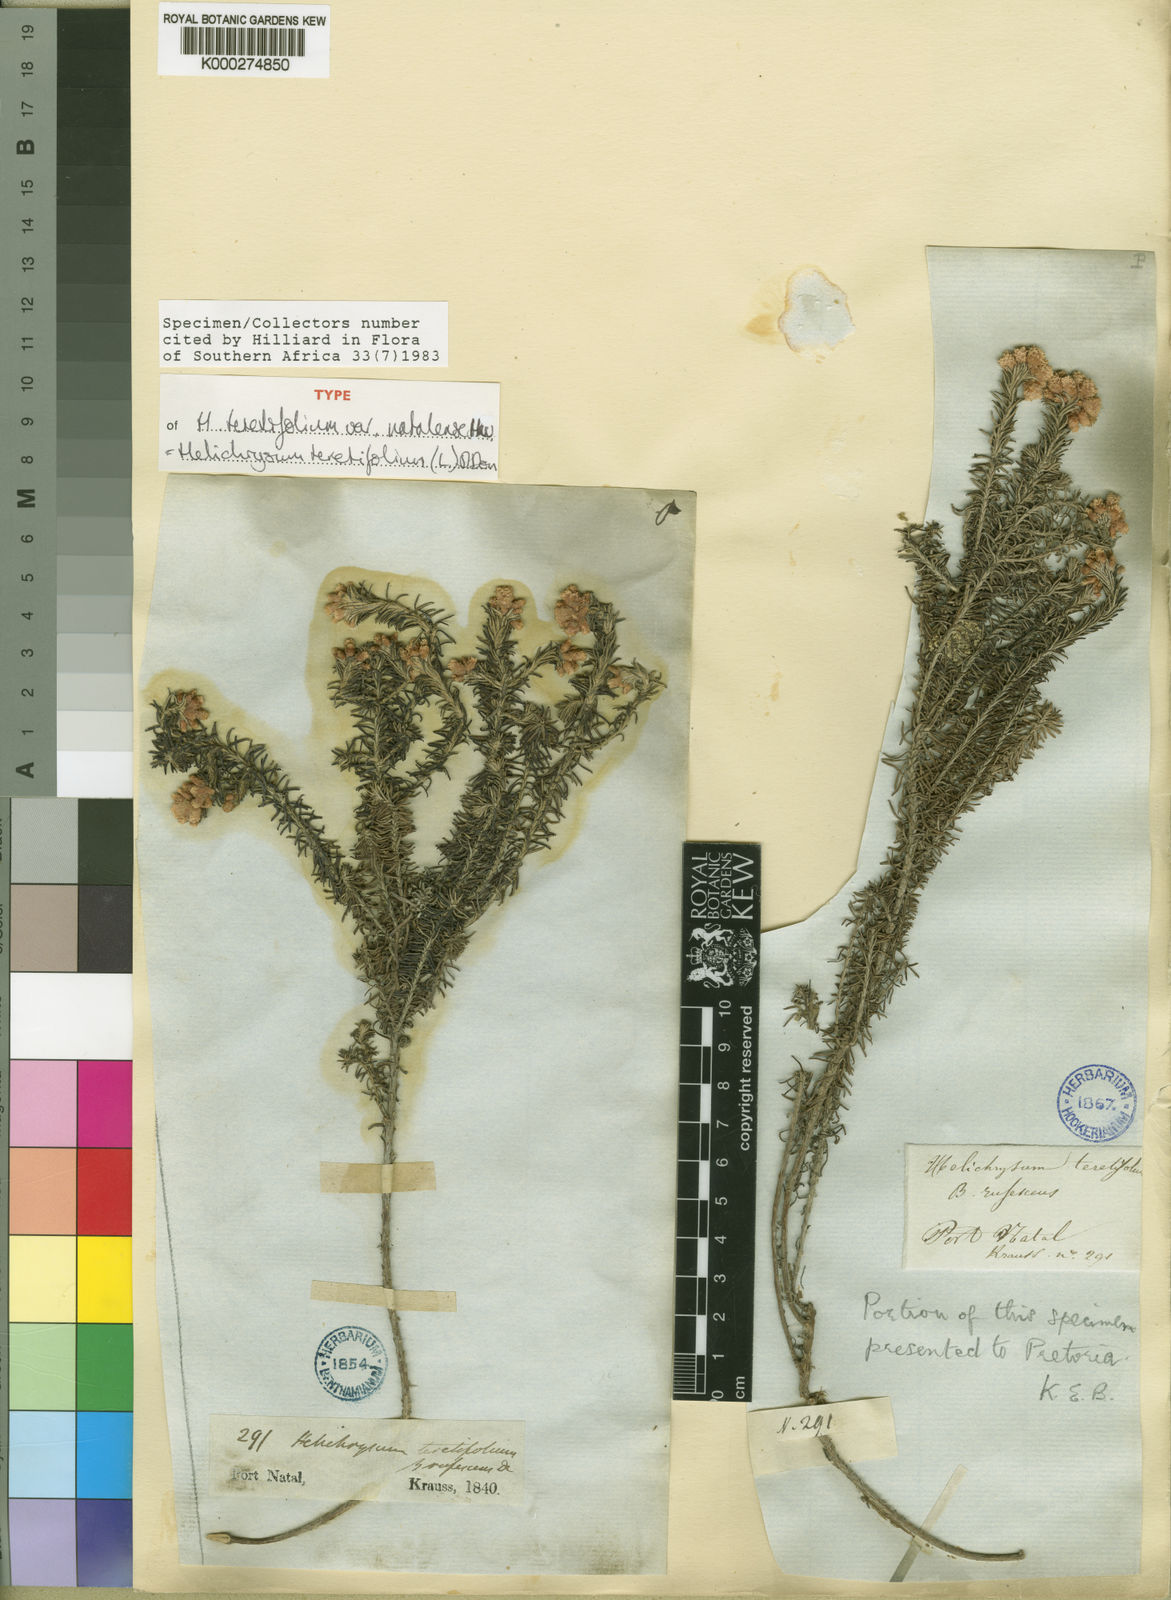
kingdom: Plantae
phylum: Tracheophyta
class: Magnoliopsida
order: Asterales
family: Asteraceae
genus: Helichrysum
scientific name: Helichrysum
